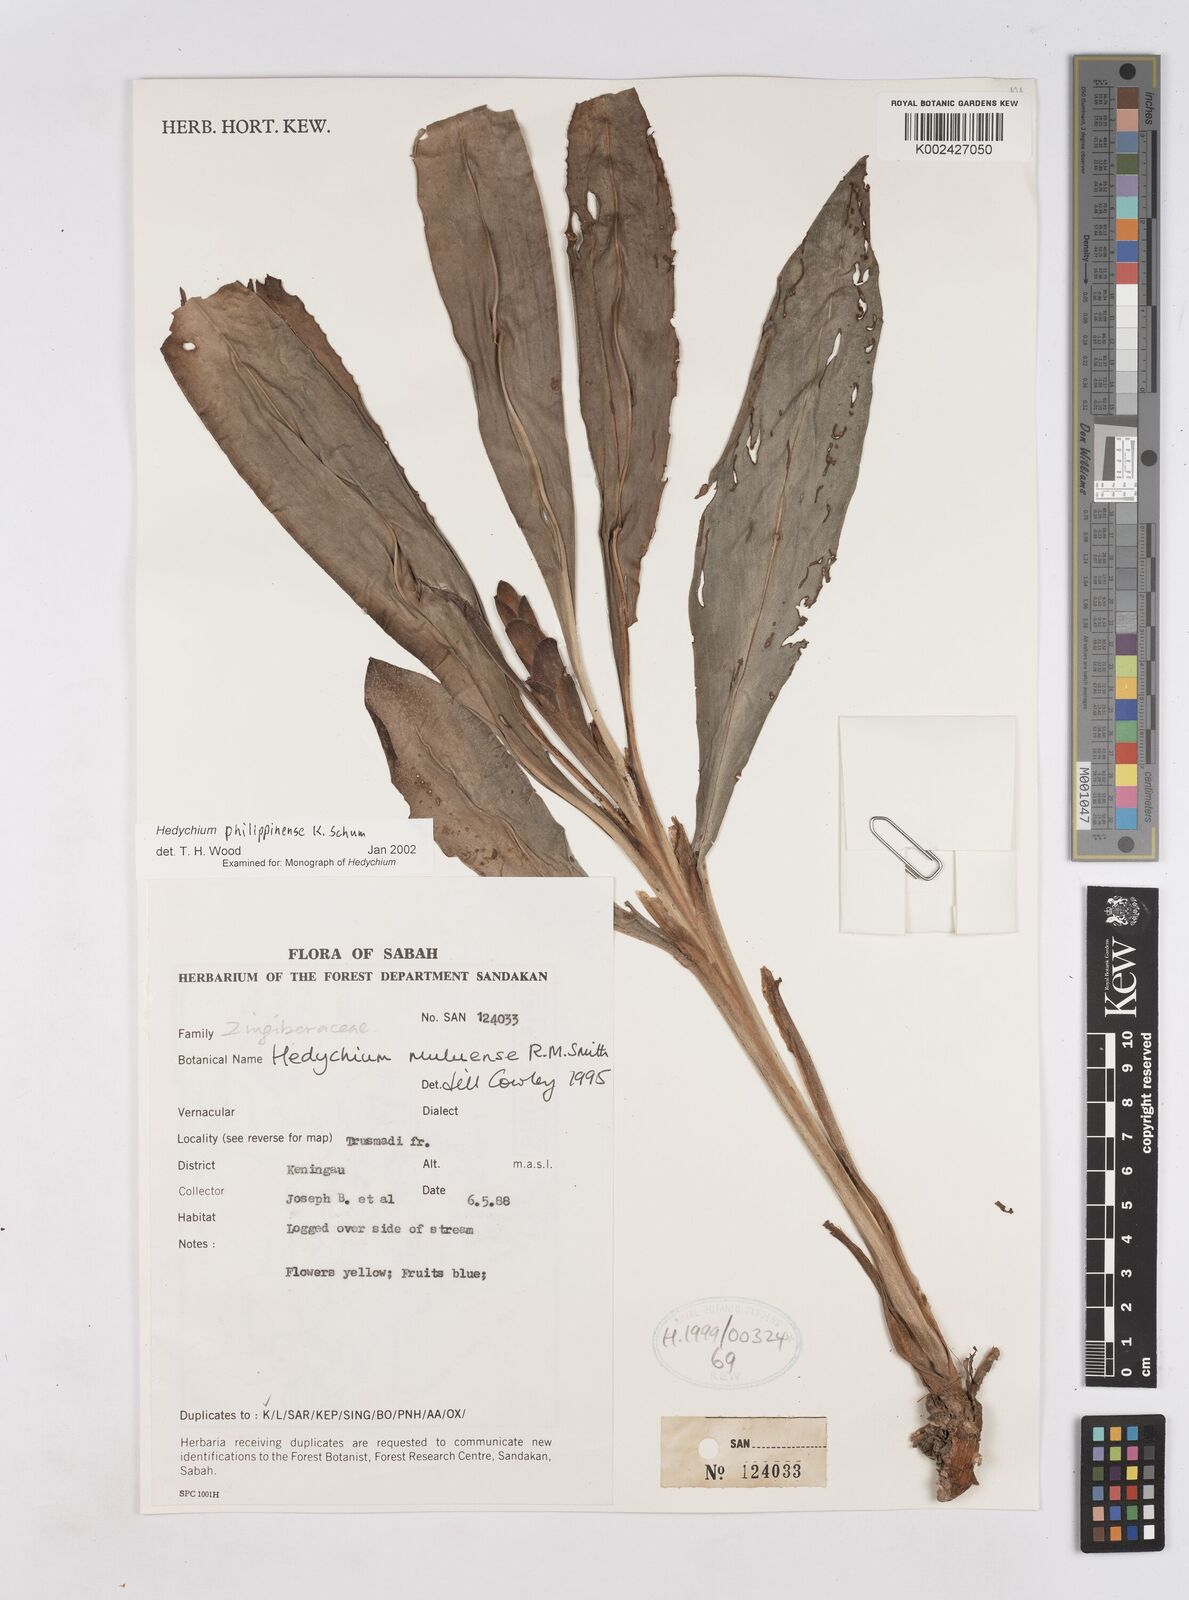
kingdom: Plantae
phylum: Tracheophyta
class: Liliopsida
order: Zingiberales
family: Zingiberaceae
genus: Hedychium
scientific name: Hedychium philippinense
